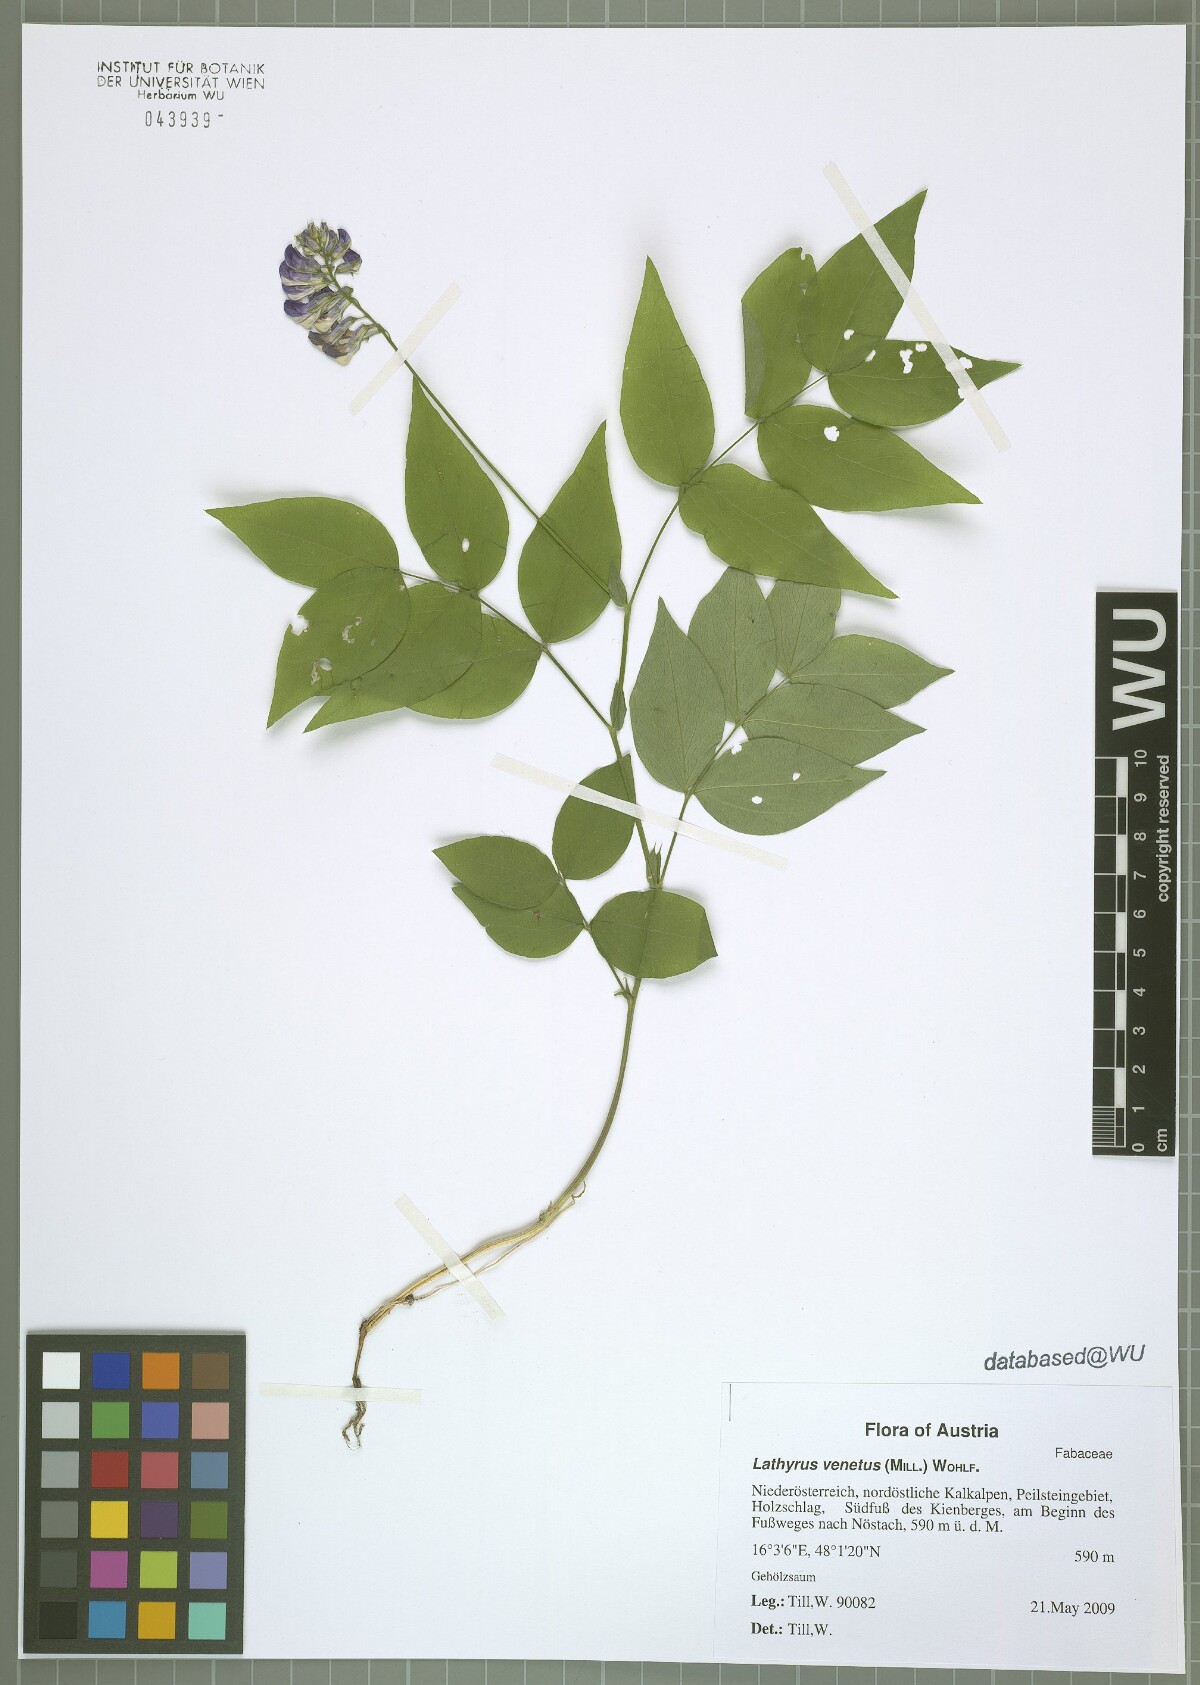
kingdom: Plantae
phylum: Tracheophyta
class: Magnoliopsida
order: Fabales
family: Fabaceae
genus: Lathyrus
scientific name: Lathyrus venetus
